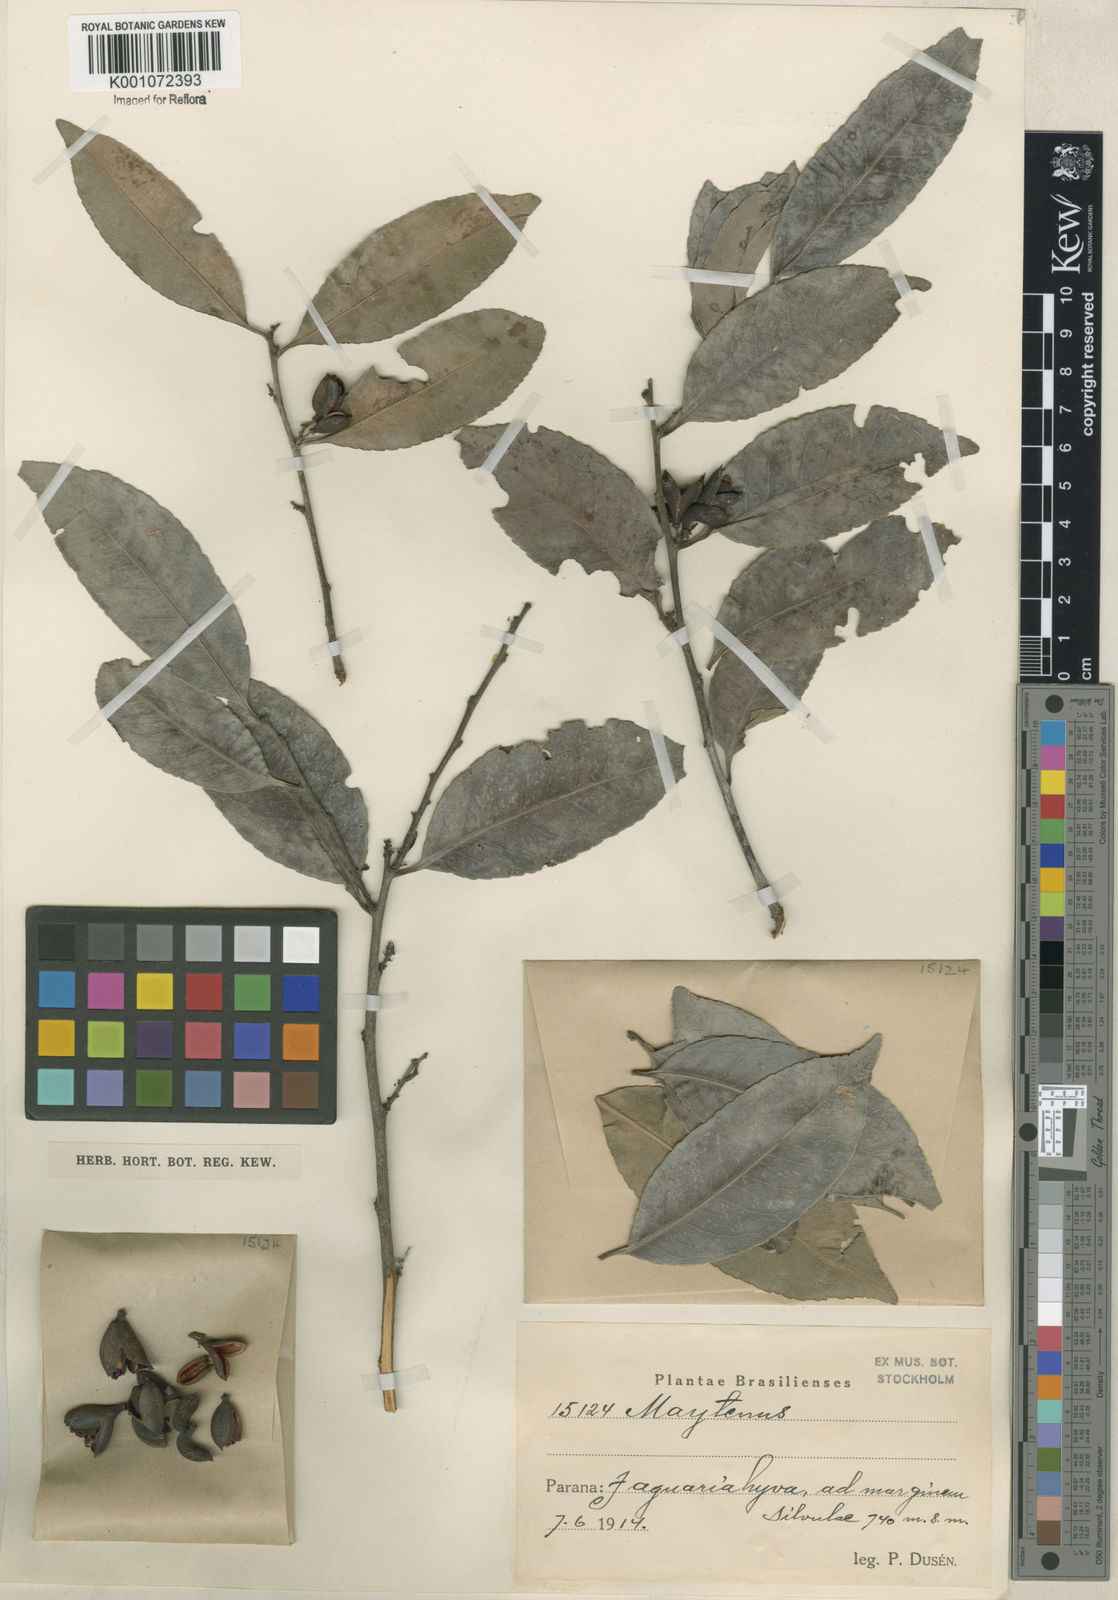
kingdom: Plantae
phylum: Tracheophyta
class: Magnoliopsida
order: Celastrales
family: Celastraceae
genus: Maytenus
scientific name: Maytenus
